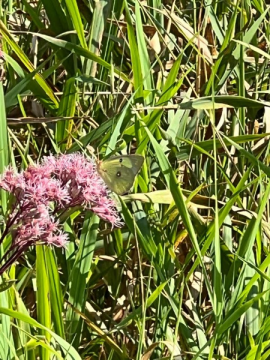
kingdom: Animalia
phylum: Arthropoda
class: Insecta
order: Lepidoptera
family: Pieridae
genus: Colias
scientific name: Colias philodice
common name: Clouded Sulphur
